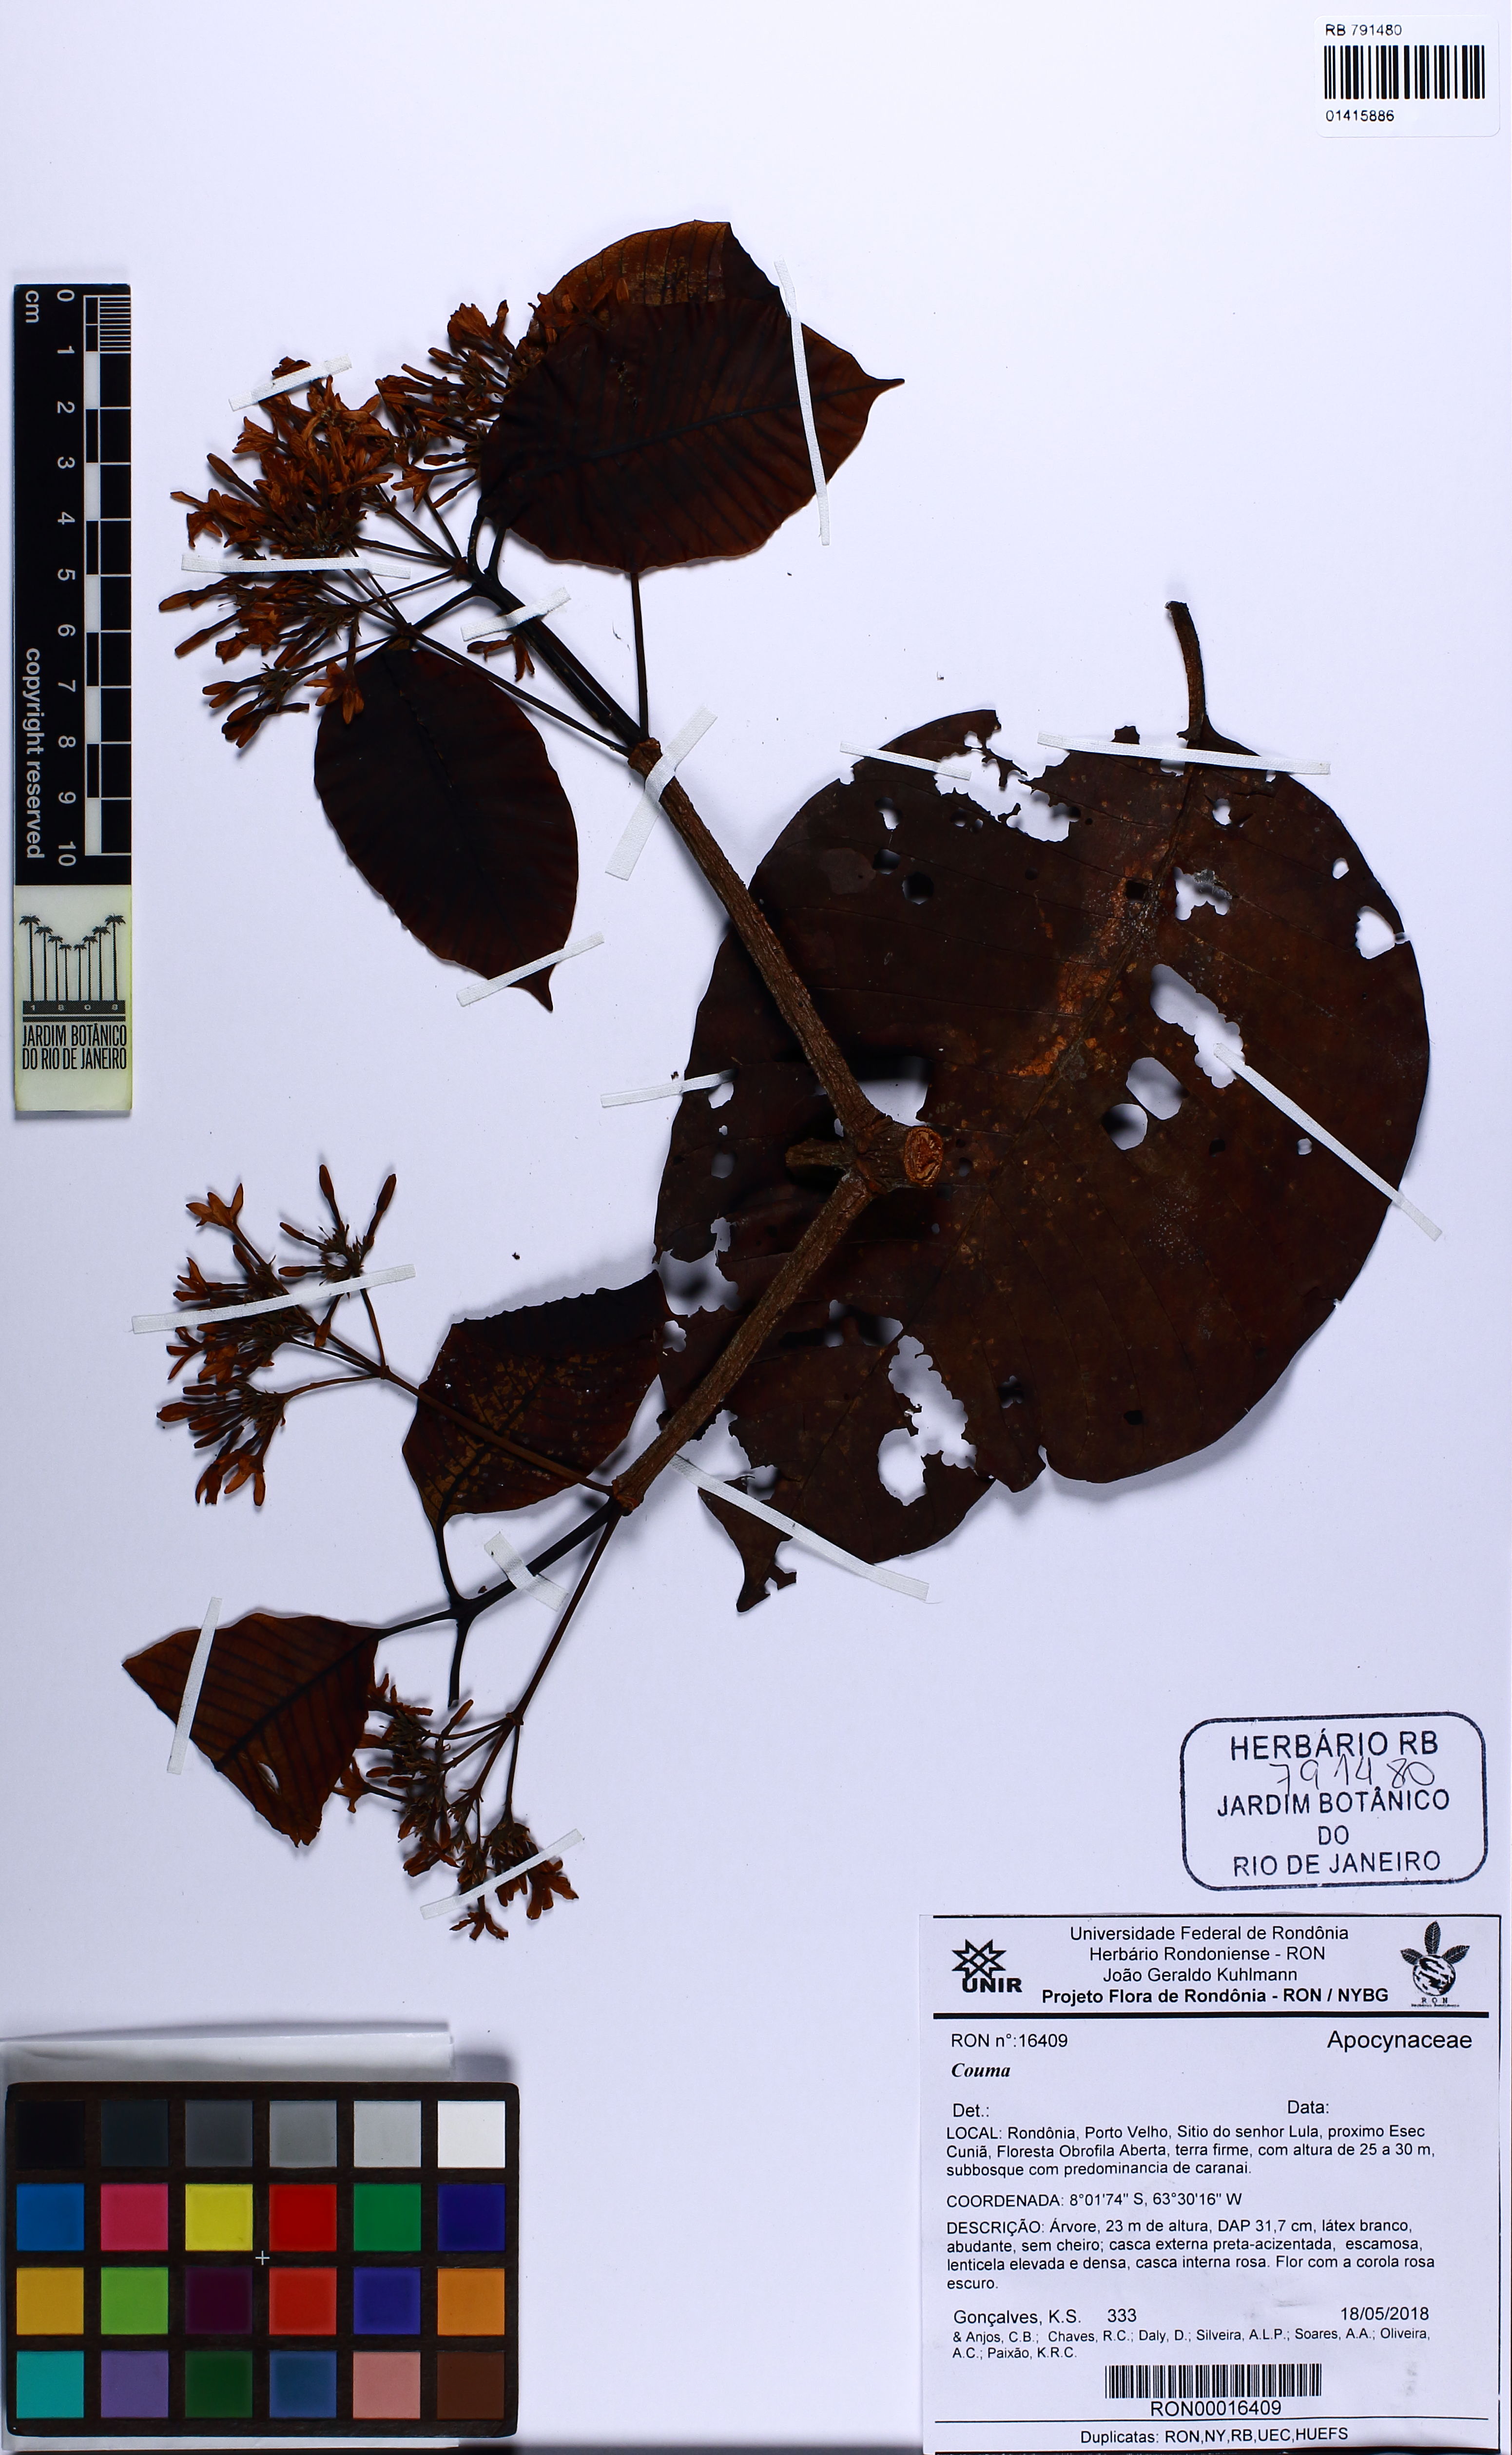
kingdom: Plantae
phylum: Tracheophyta
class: Magnoliopsida
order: Gentianales
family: Apocynaceae
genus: Couma
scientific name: Couma
